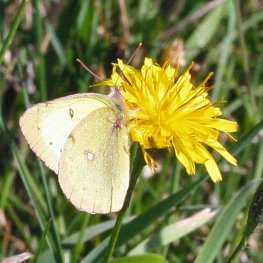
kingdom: Animalia
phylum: Arthropoda
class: Insecta
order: Lepidoptera
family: Pieridae
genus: Colias
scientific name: Colias philodice
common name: Clouded Sulphur
